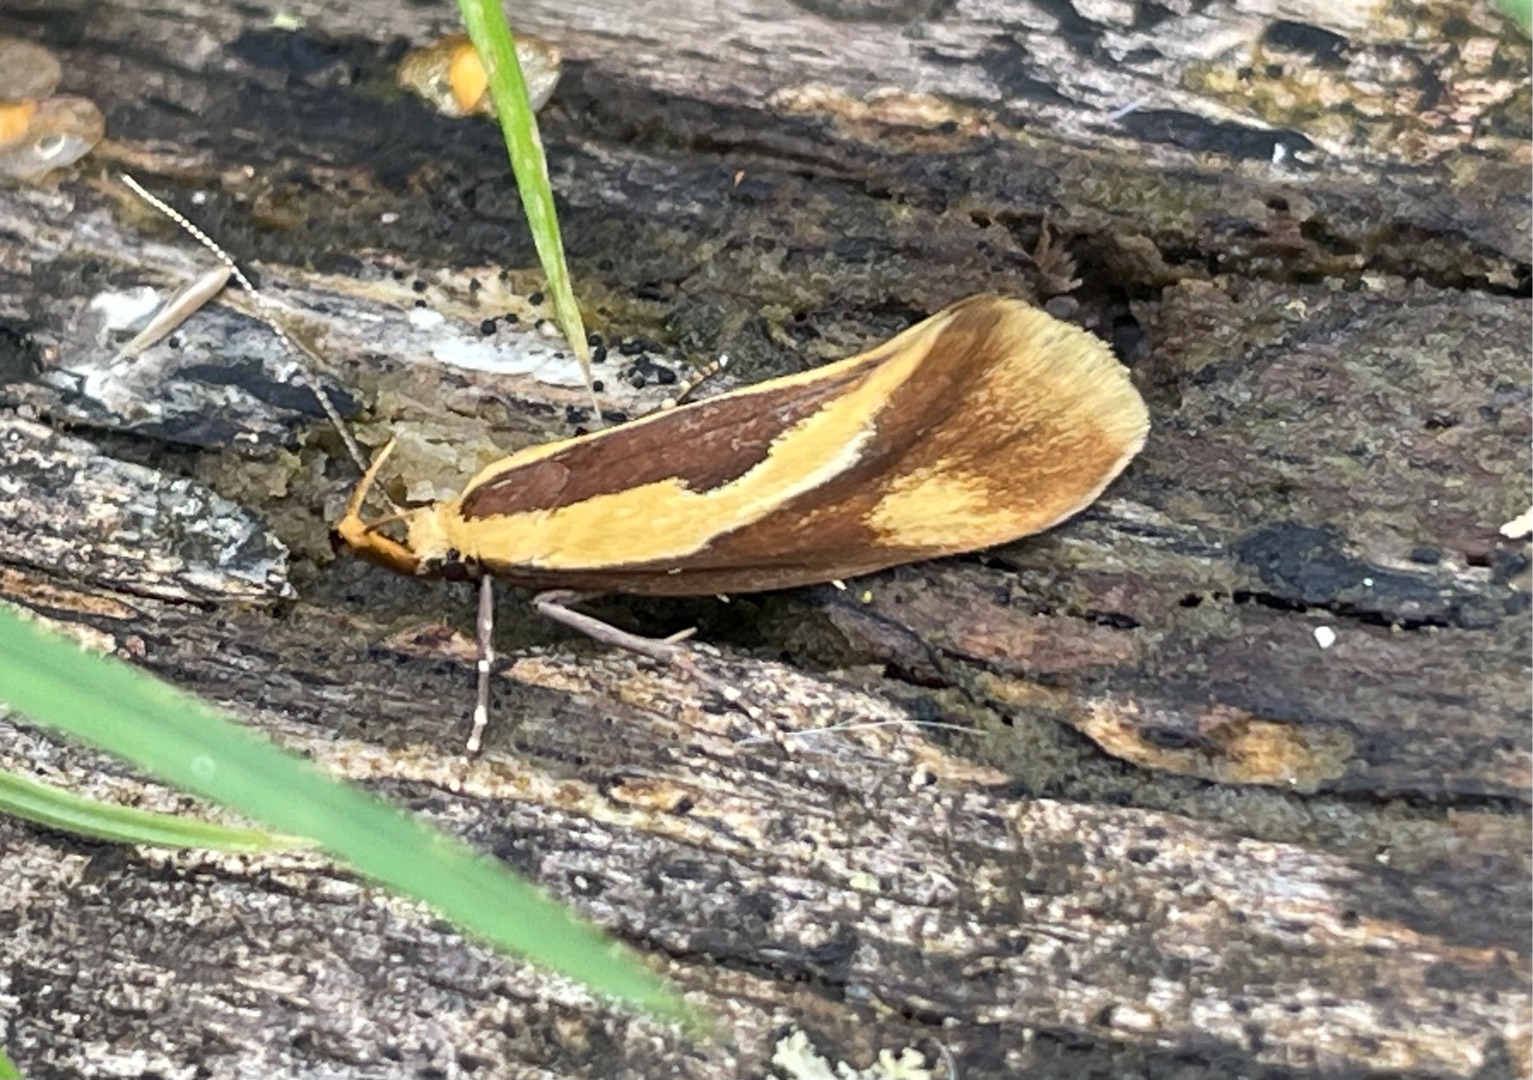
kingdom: Animalia
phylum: Arthropoda
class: Insecta
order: Lepidoptera
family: Oecophoridae
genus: Harpella
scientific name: Harpella forficella
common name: Kæmpeprydvinge
